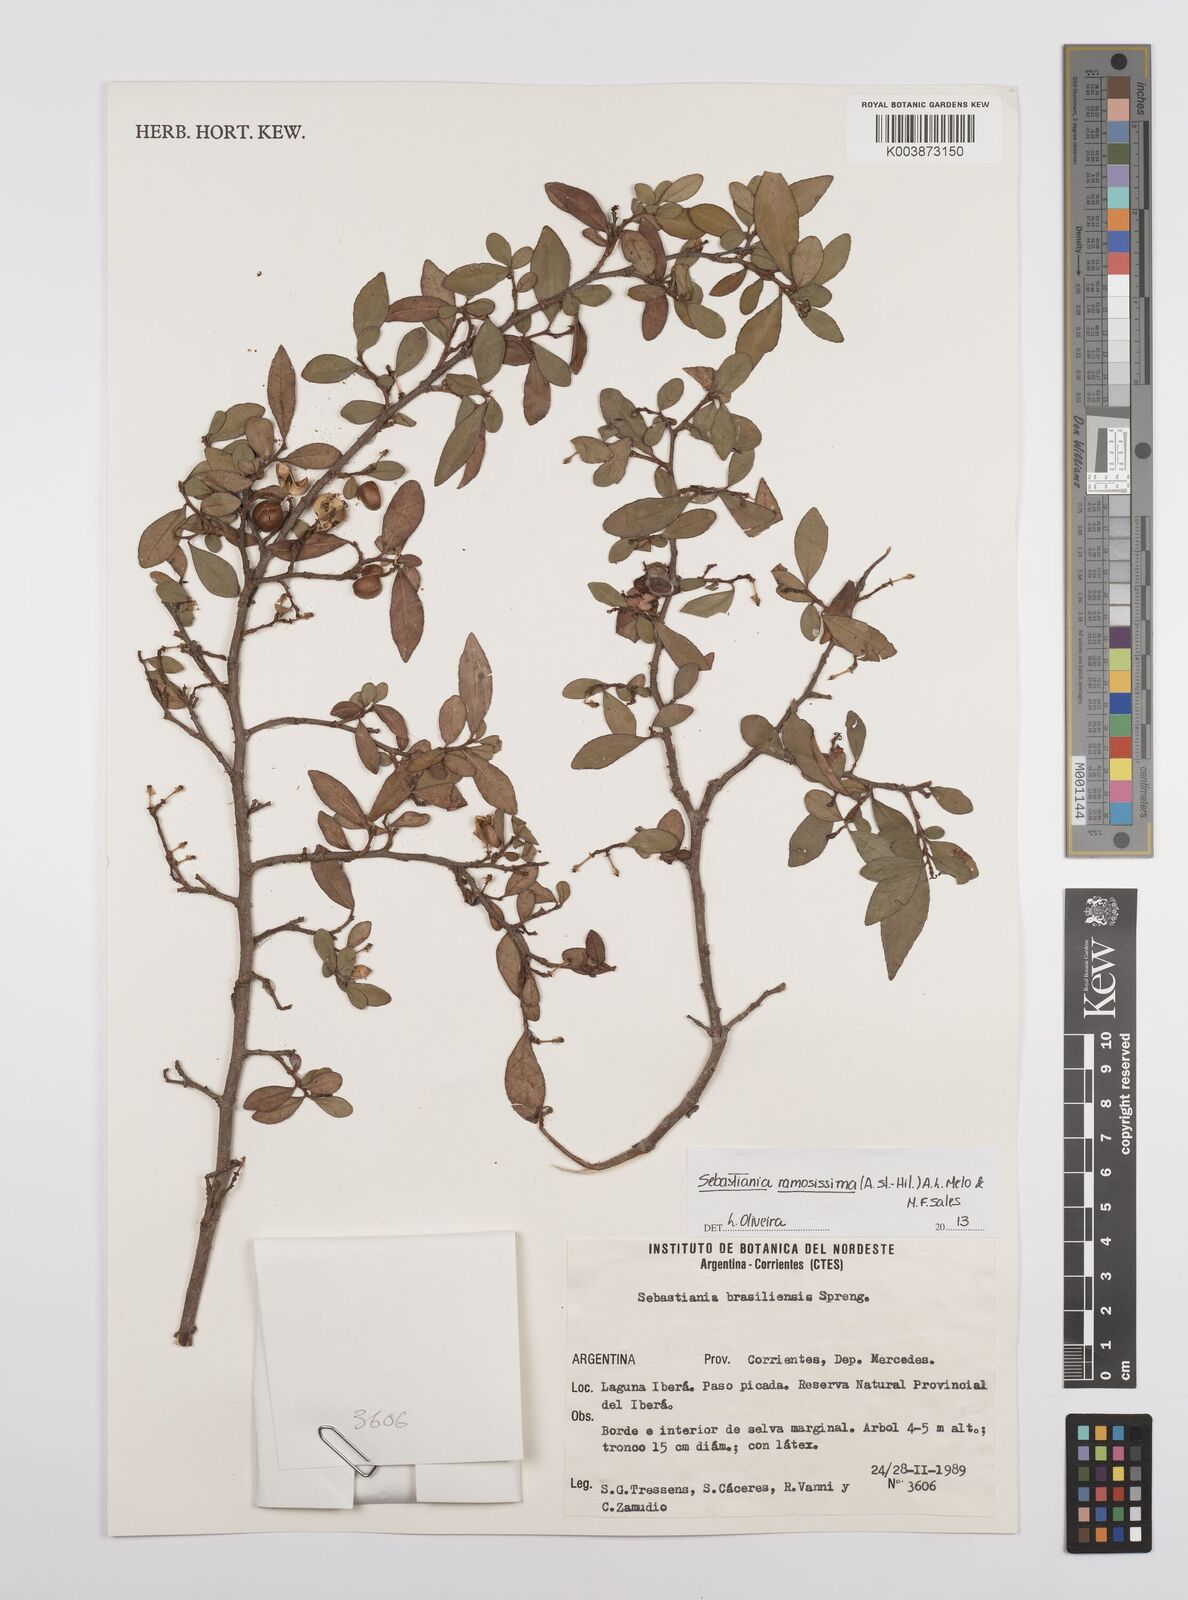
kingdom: Plantae
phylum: Tracheophyta
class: Magnoliopsida
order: Malpighiales
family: Euphorbiaceae
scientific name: Euphorbiaceae
